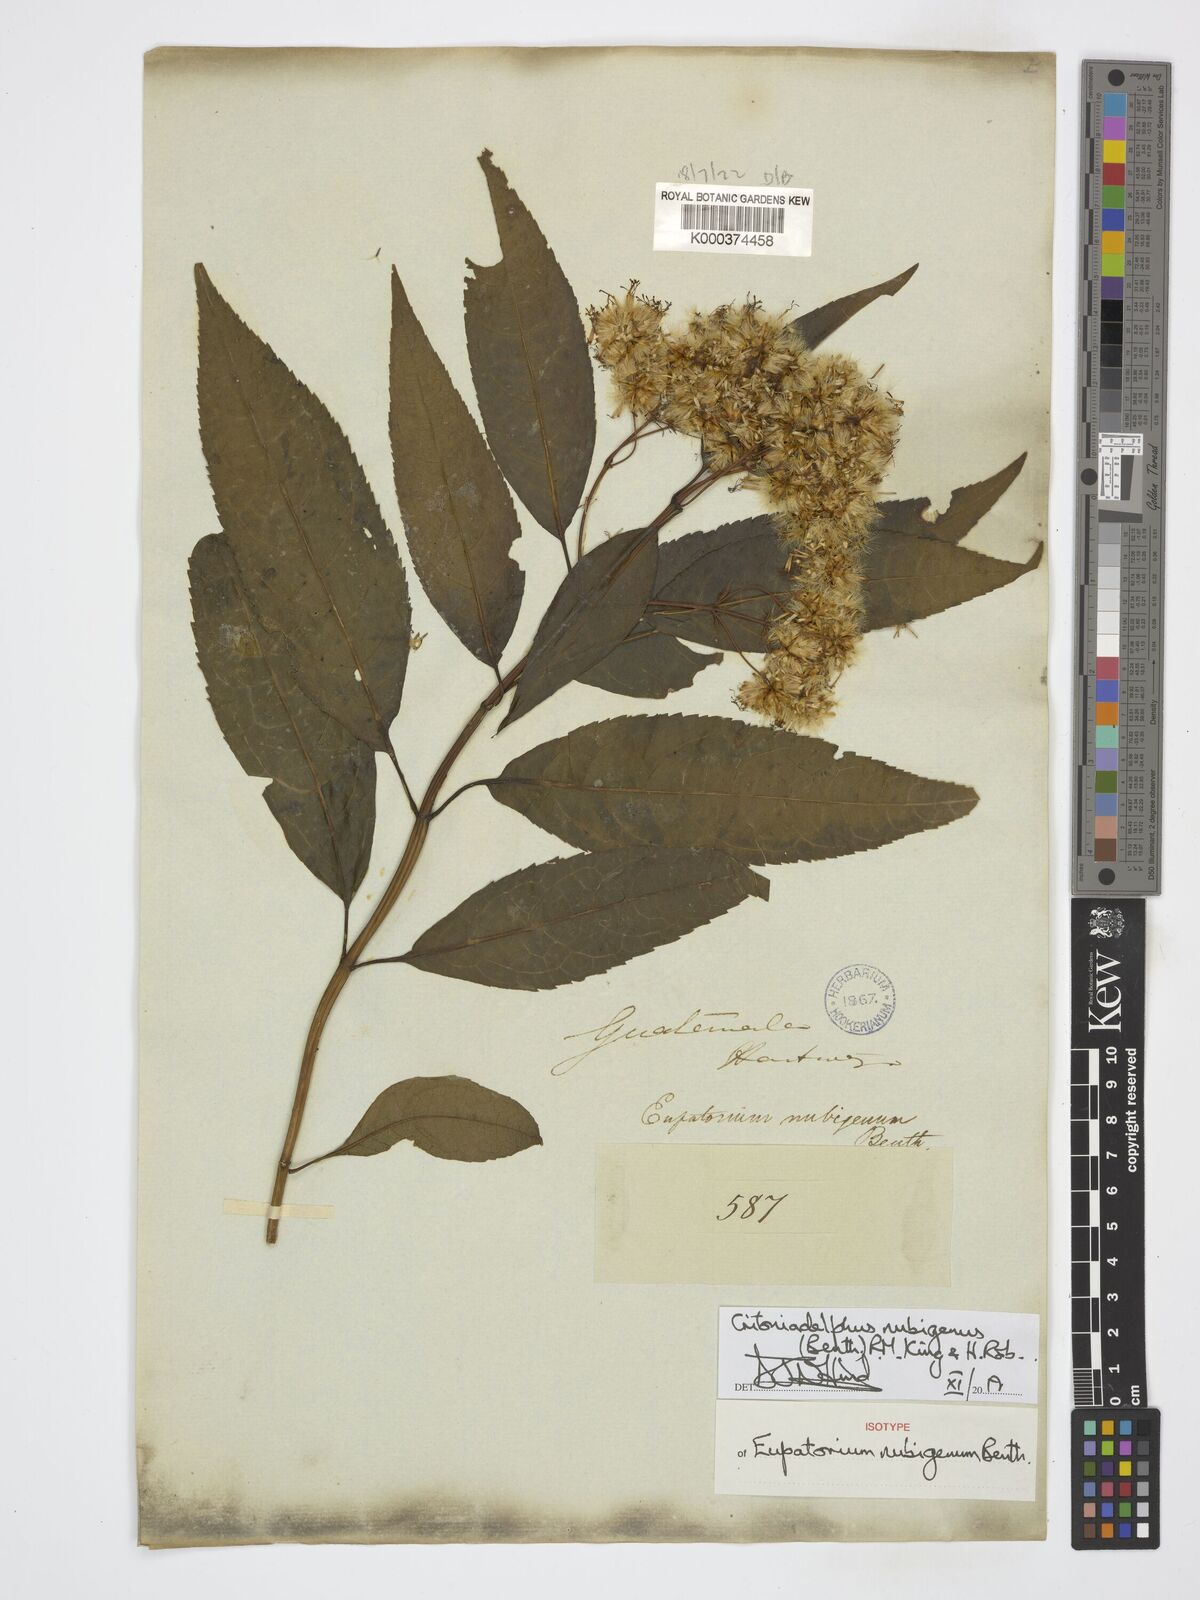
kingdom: Plantae
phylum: Tracheophyta
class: Magnoliopsida
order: Asterales
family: Asteraceae
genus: Critonia
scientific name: Critonia nubigena
